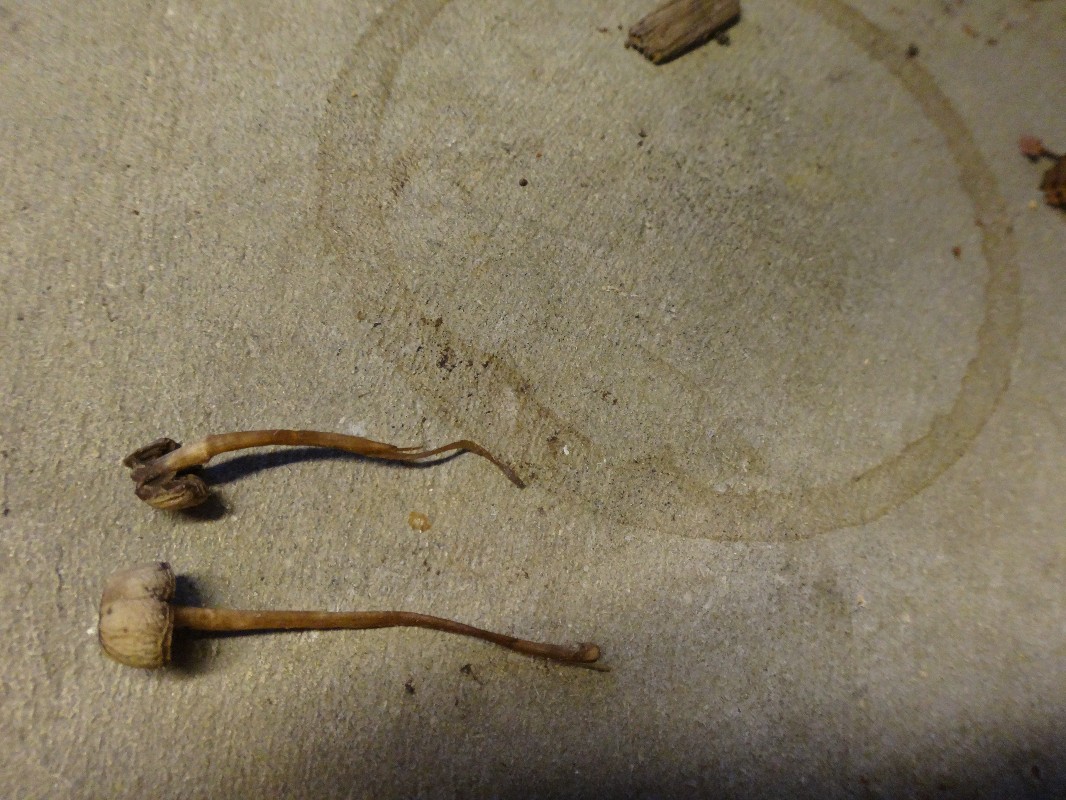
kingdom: Fungi
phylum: Basidiomycota
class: Agaricomycetes
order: Agaricales
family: Bolbitiaceae
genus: Panaeolus
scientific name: Panaeolus olivaceus
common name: lysstokket glanshat
